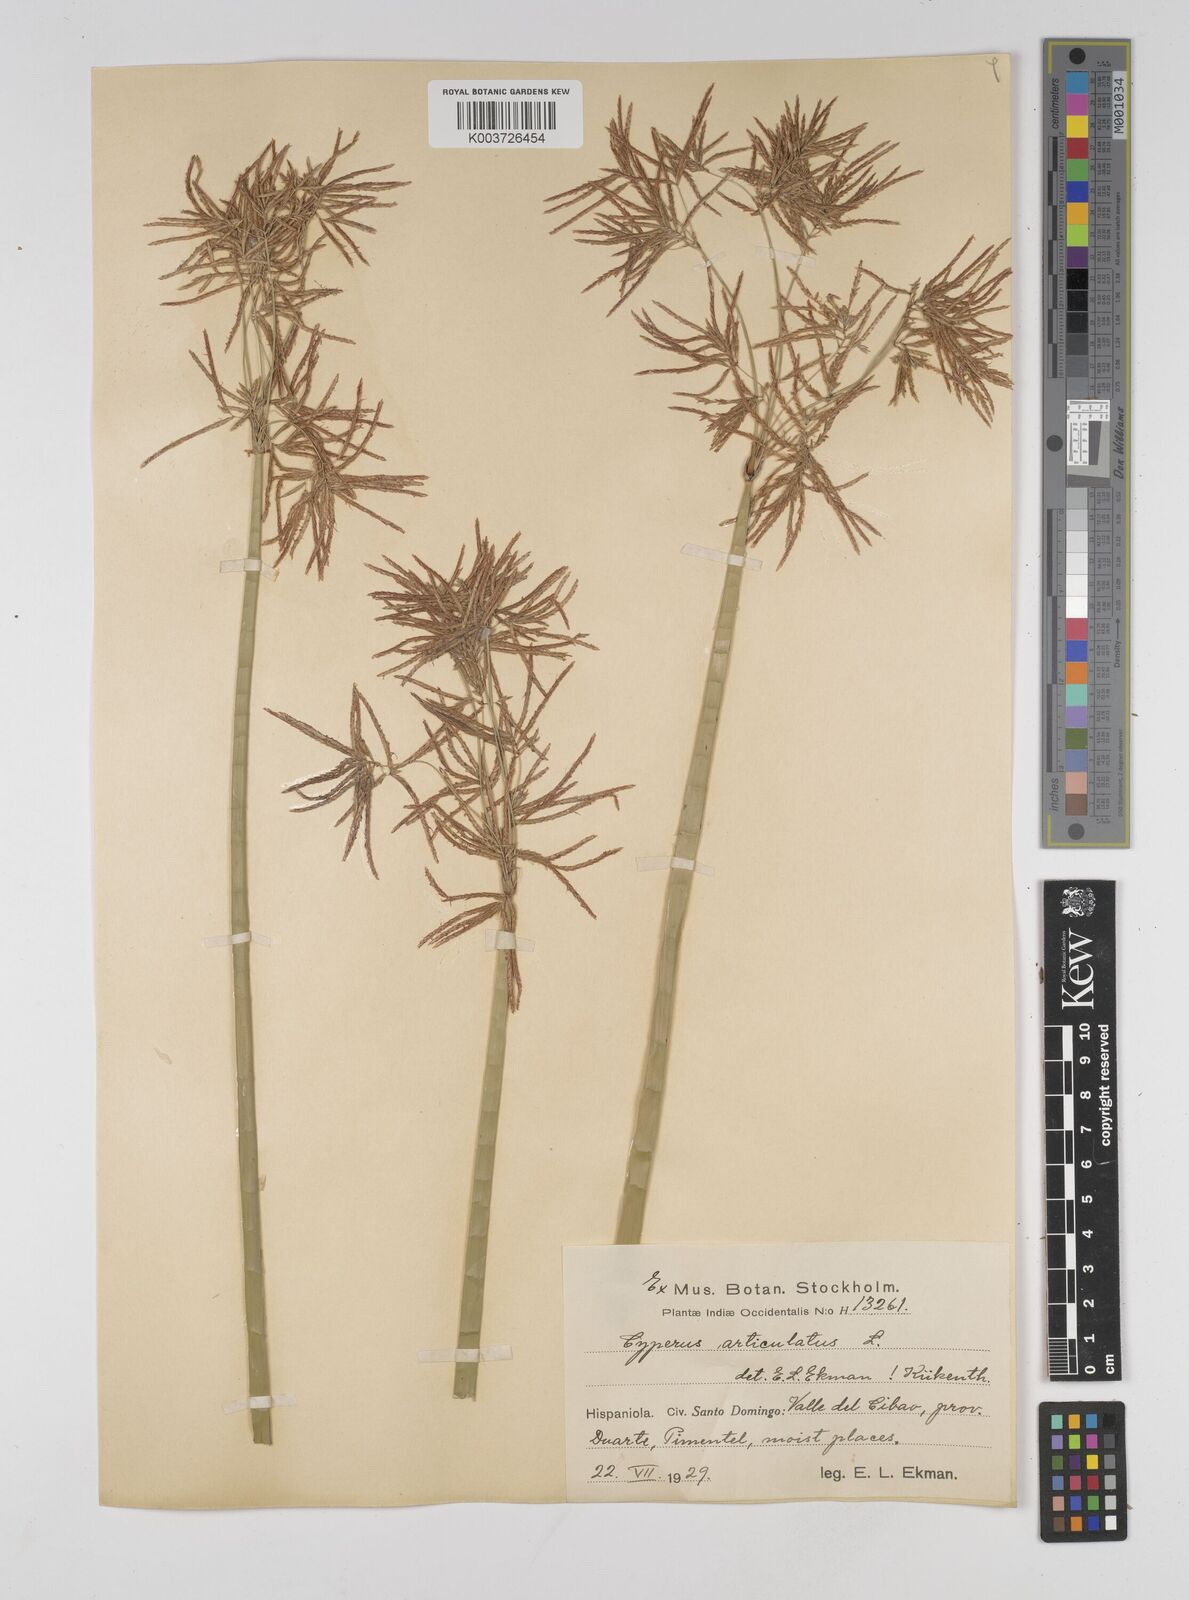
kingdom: Plantae
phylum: Tracheophyta
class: Liliopsida
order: Poales
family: Cyperaceae
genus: Cyperus
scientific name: Cyperus articulatus
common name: Jointed flatsedge
